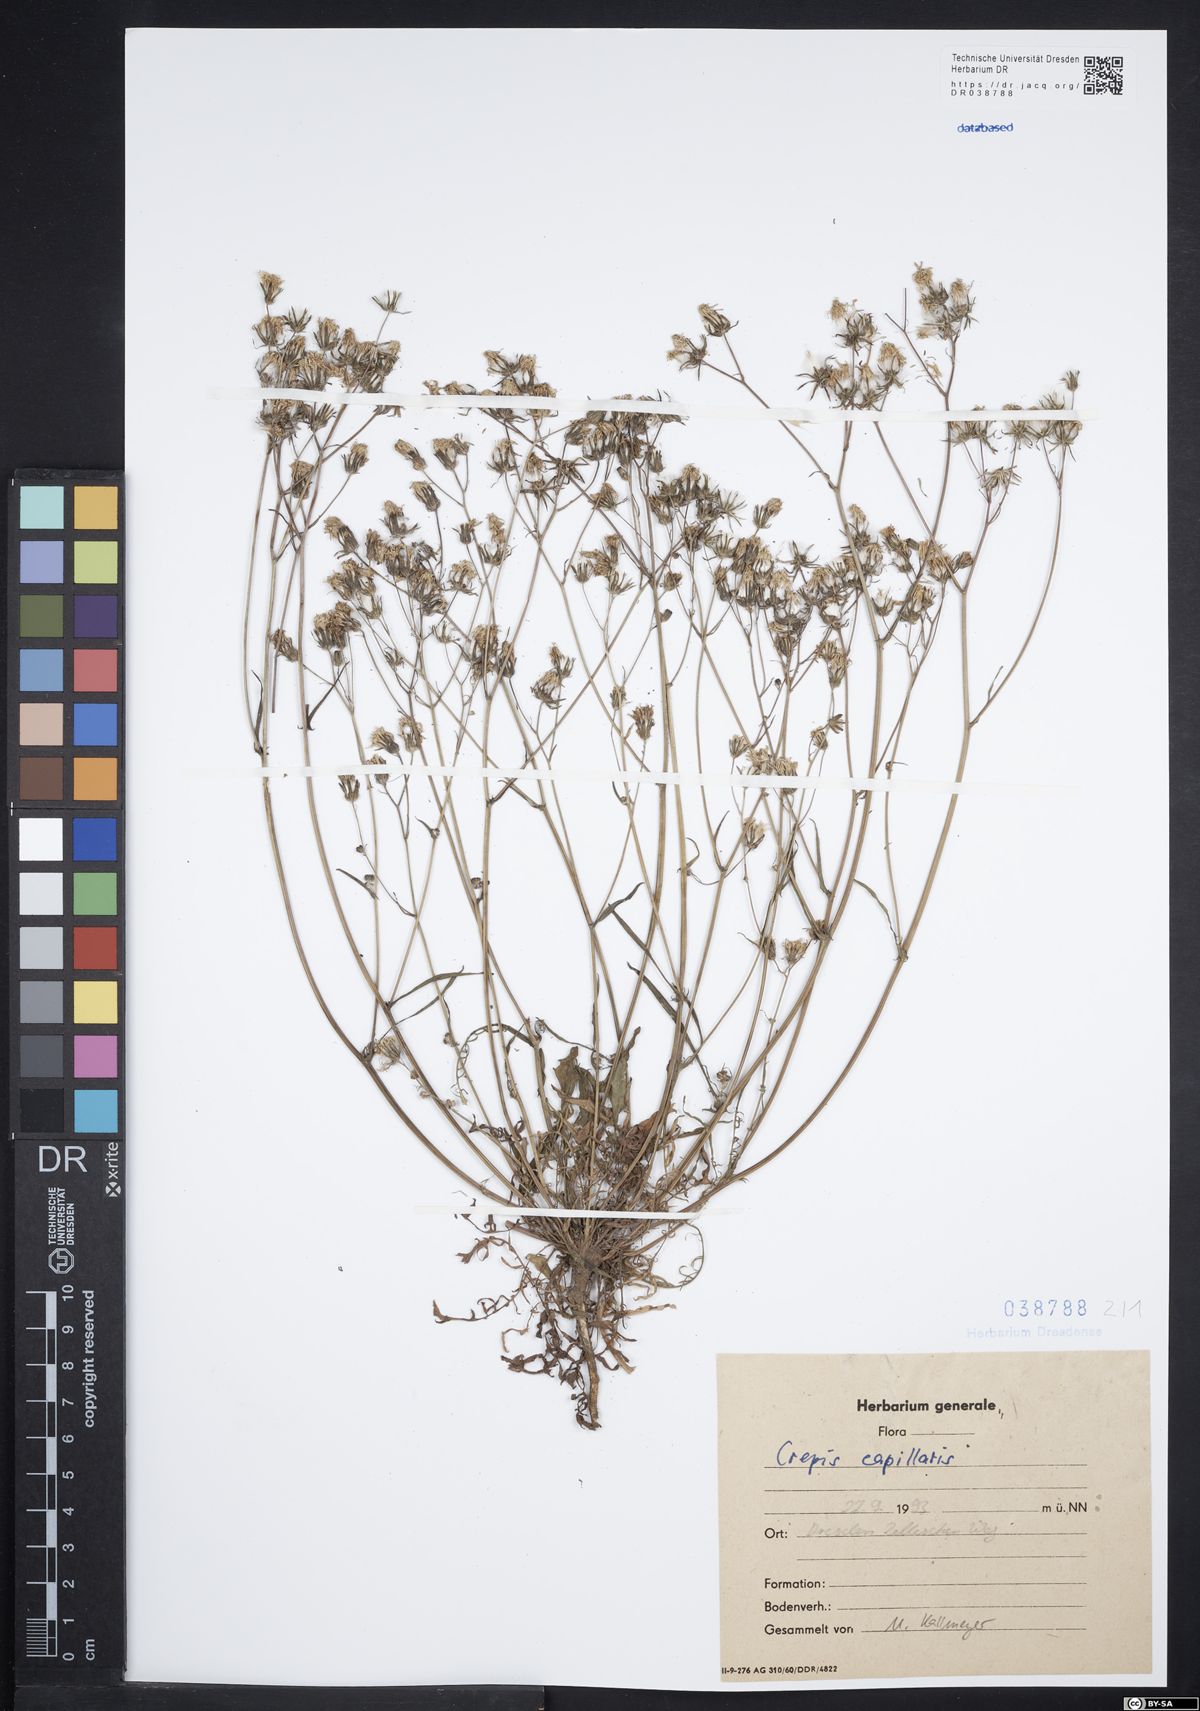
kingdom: Plantae
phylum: Tracheophyta
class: Magnoliopsida
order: Asterales
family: Asteraceae
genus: Crepis
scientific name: Crepis capillaris
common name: Smooth hawksbeard
